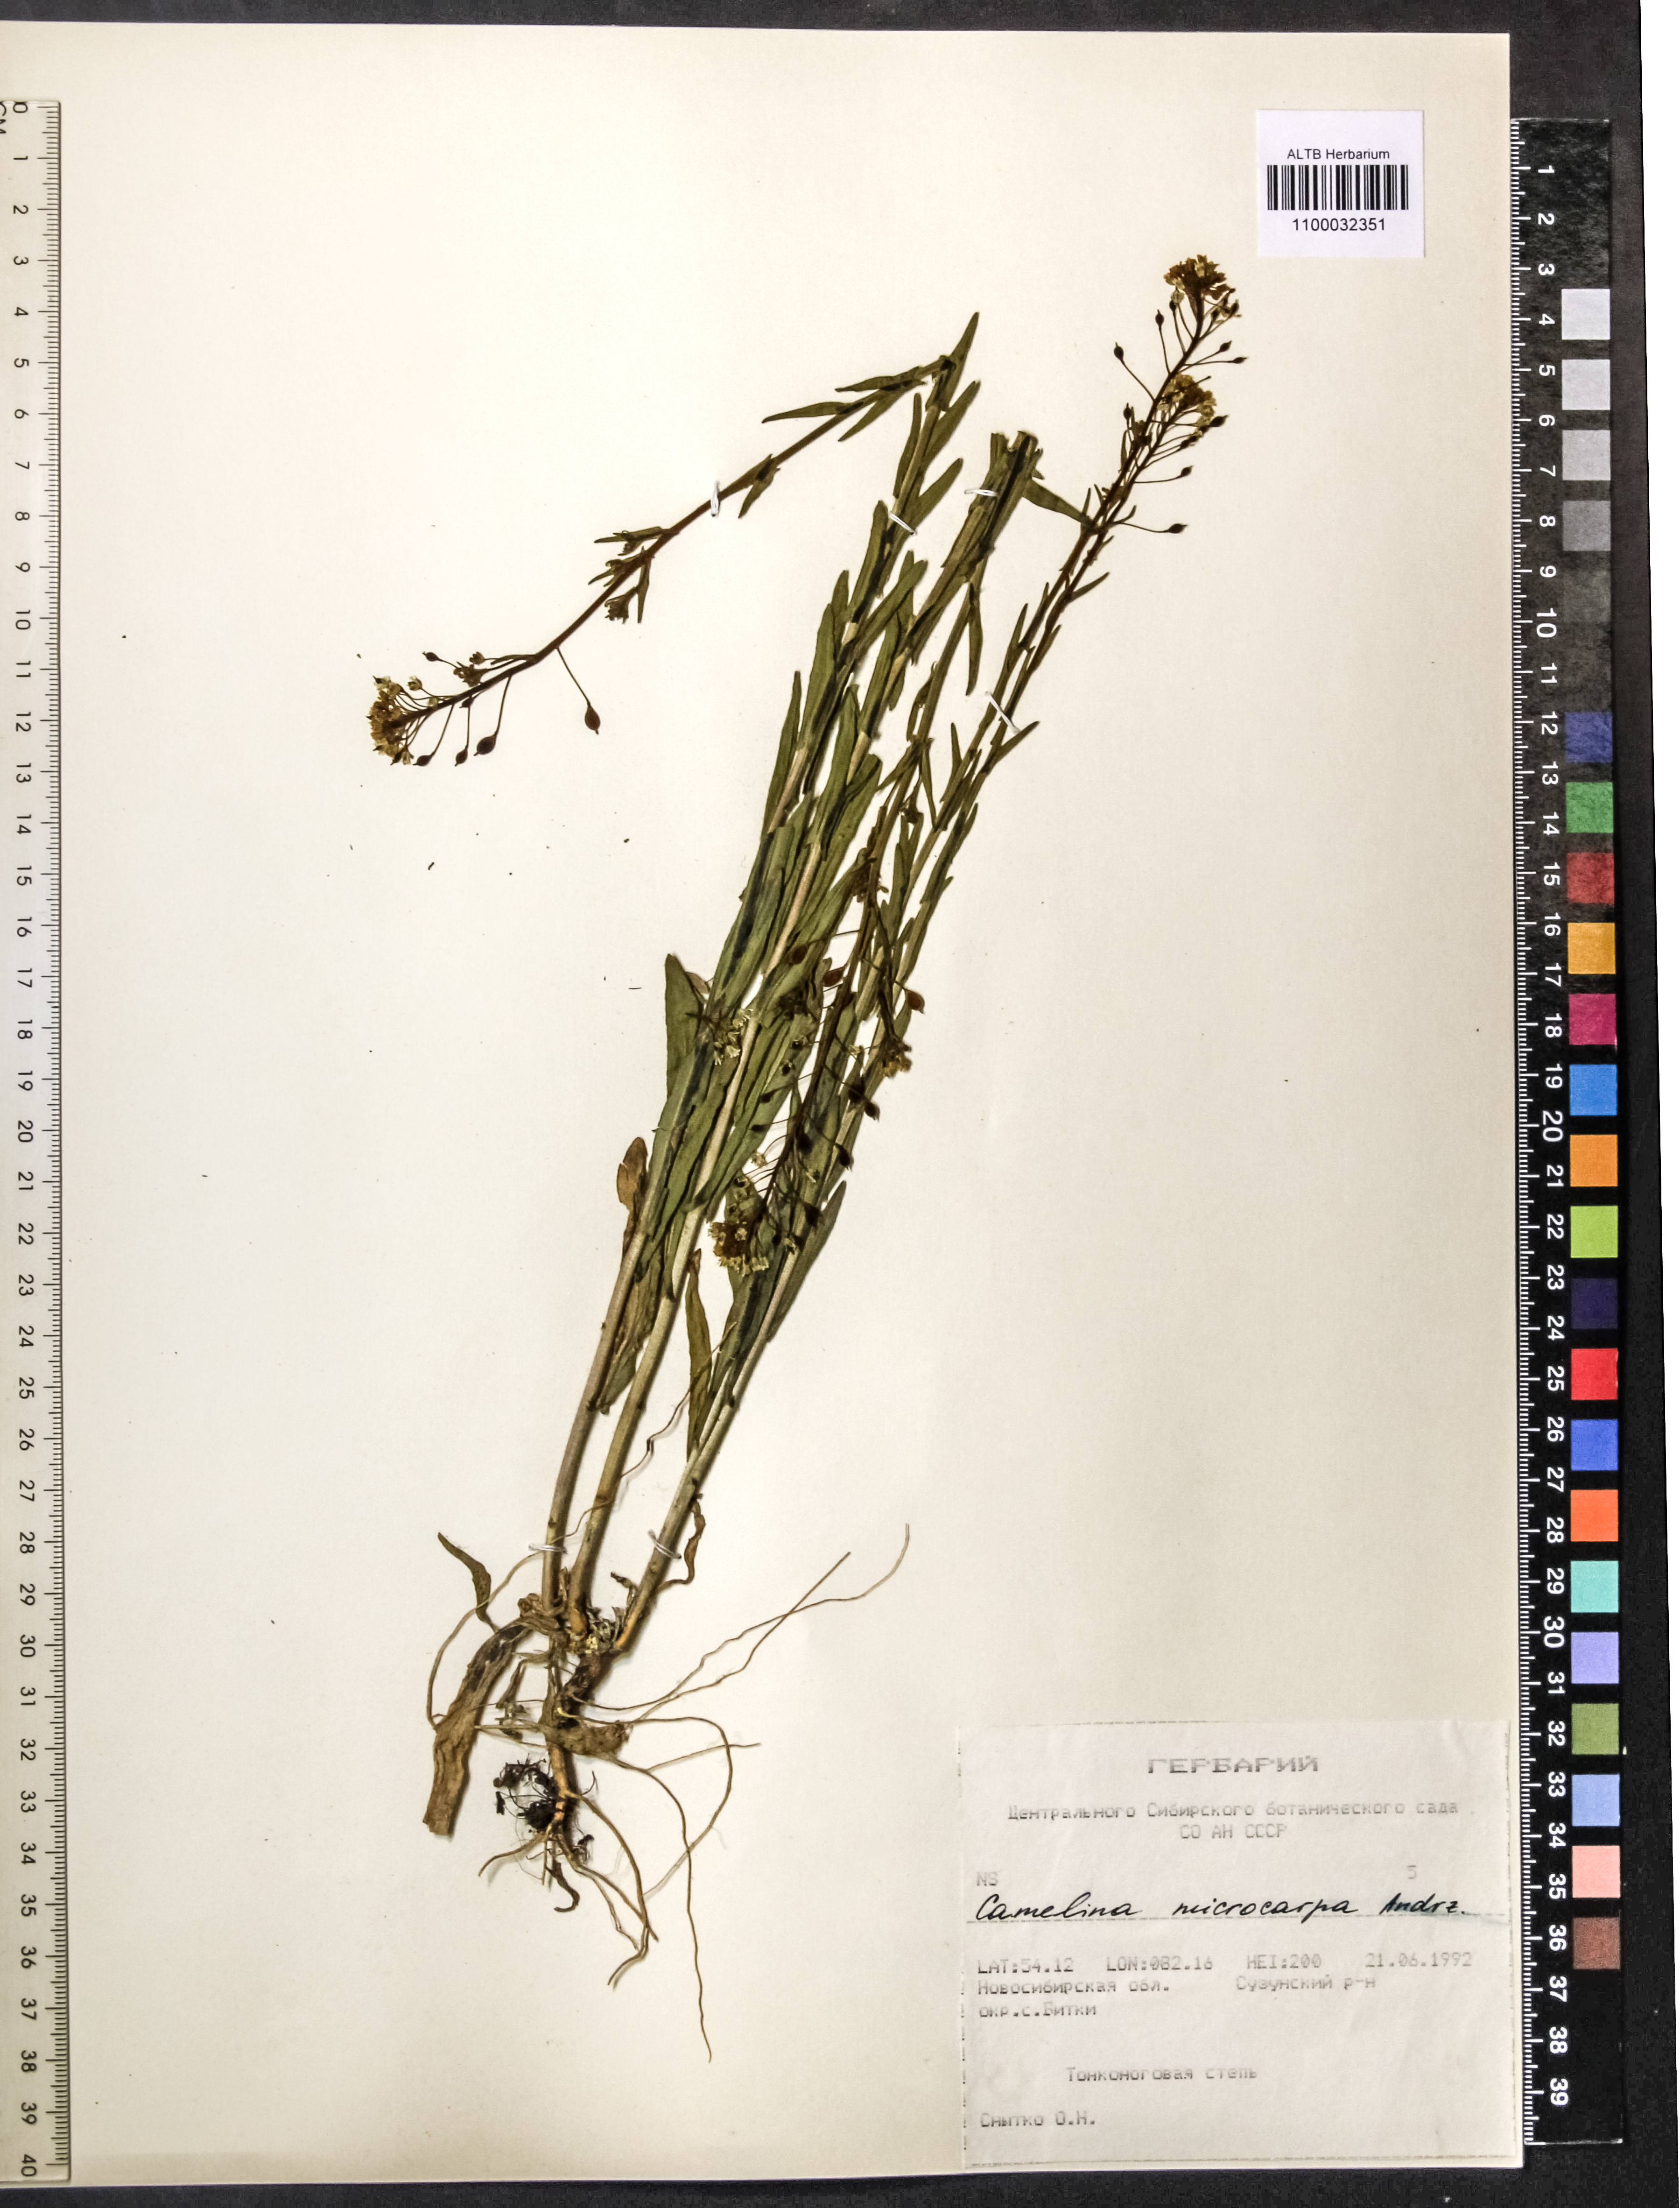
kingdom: Plantae
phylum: Tracheophyta
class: Magnoliopsida
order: Brassicales
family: Brassicaceae
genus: Camelina
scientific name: Camelina microcarpa
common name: Lesser gold-of-pleasure
